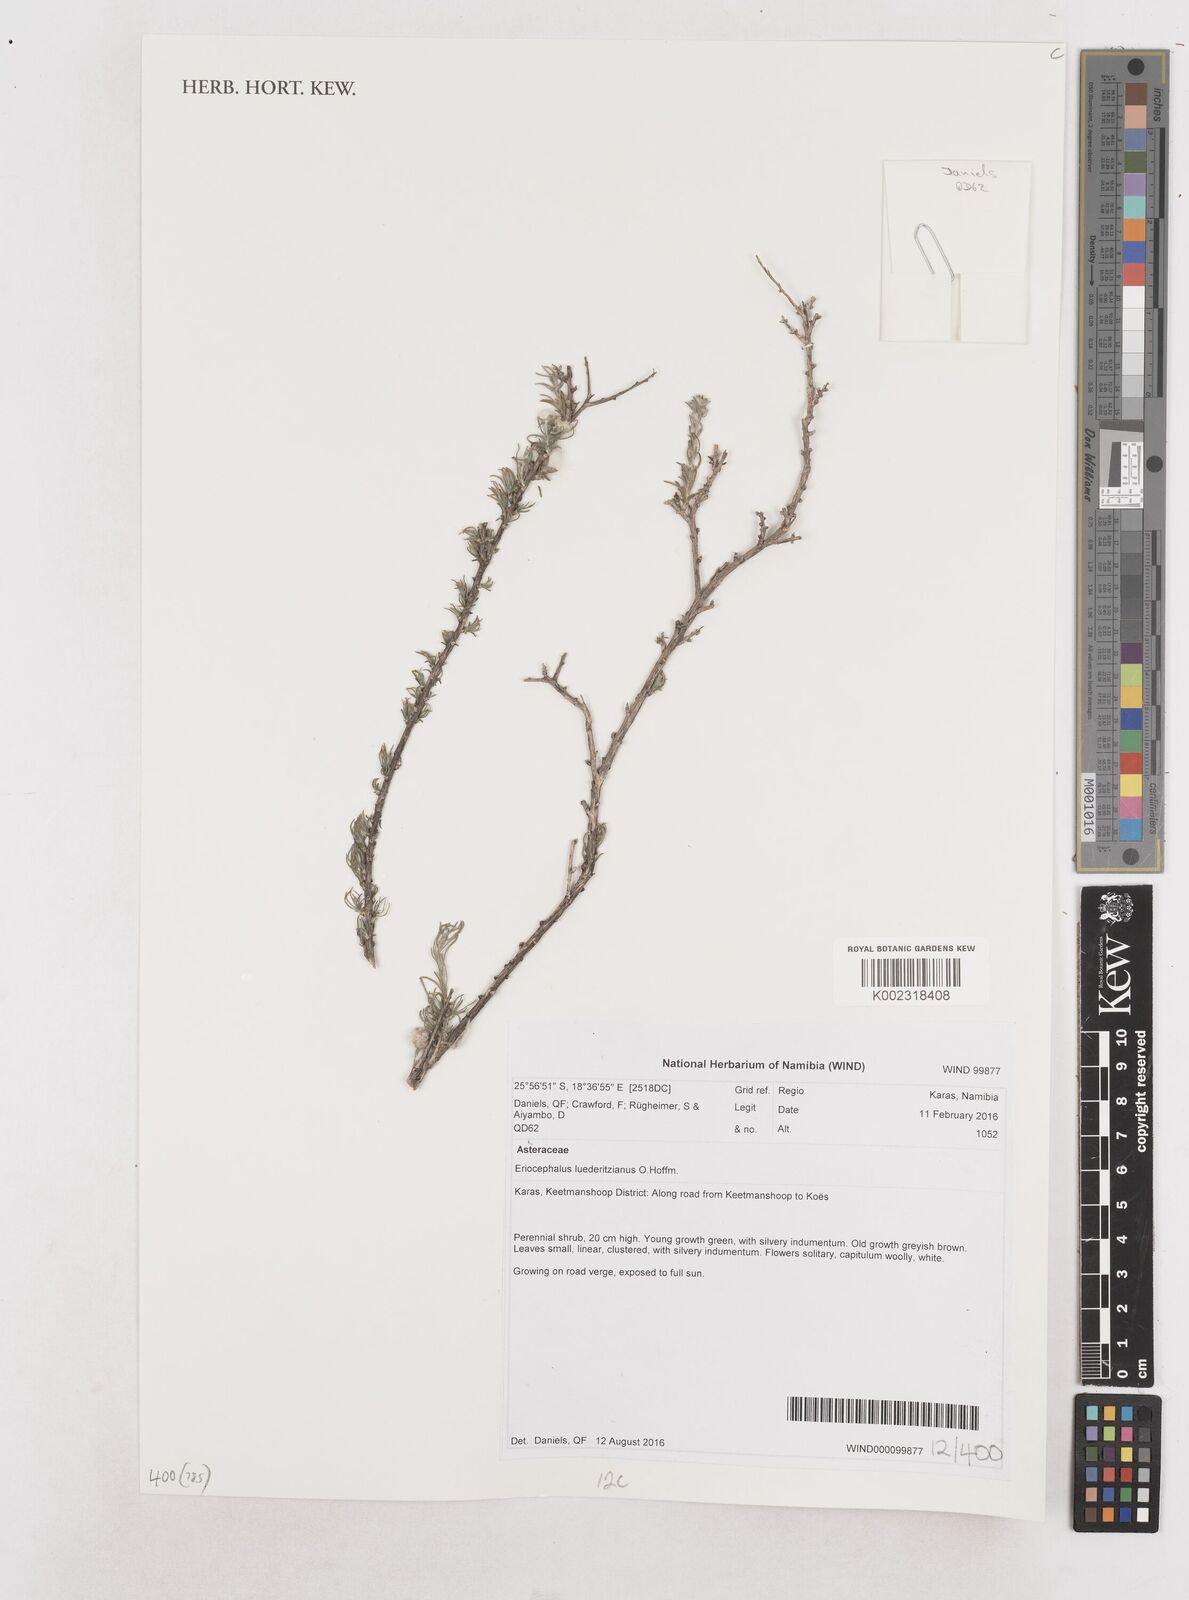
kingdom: Plantae
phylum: Tracheophyta
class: Magnoliopsida
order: Asterales
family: Asteraceae
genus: Eriocephalus
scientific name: Eriocephalus microphyllus
